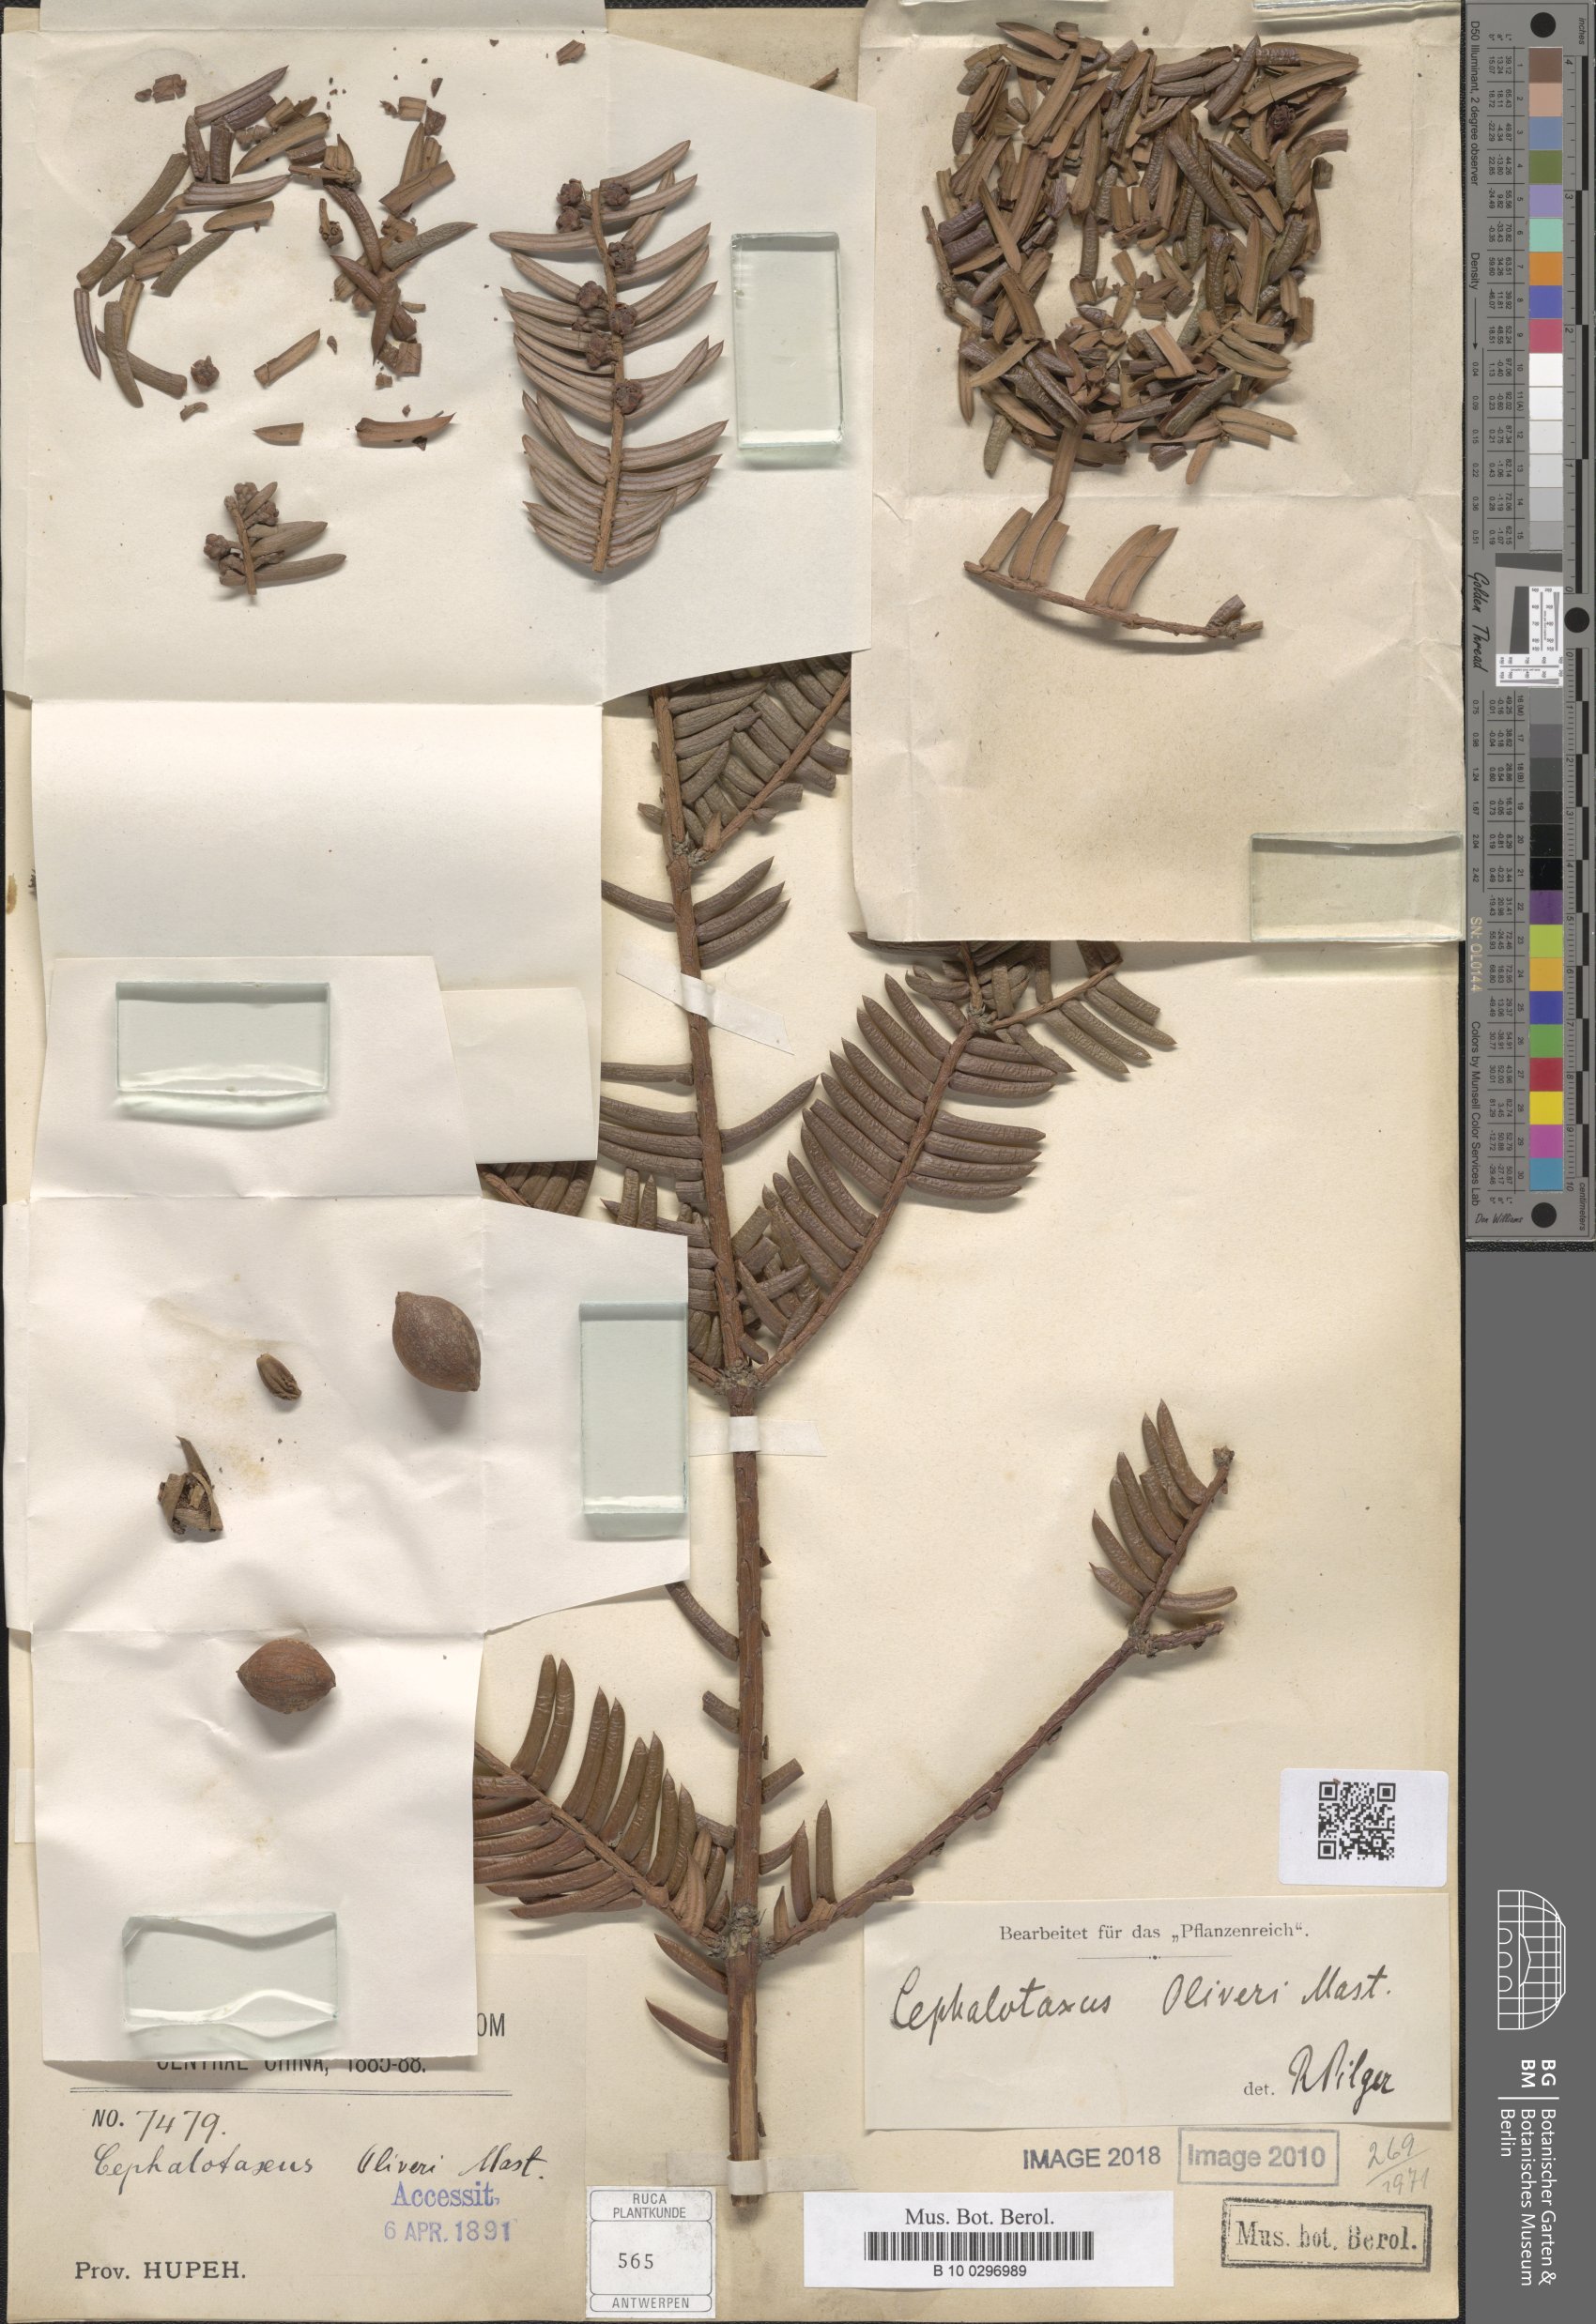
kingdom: Plantae
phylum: Tracheophyta
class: Pinopsida
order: Pinales
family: Cephalotaxaceae
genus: Cephalotaxus
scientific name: Cephalotaxus oliveri
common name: Oliver's plum yew
